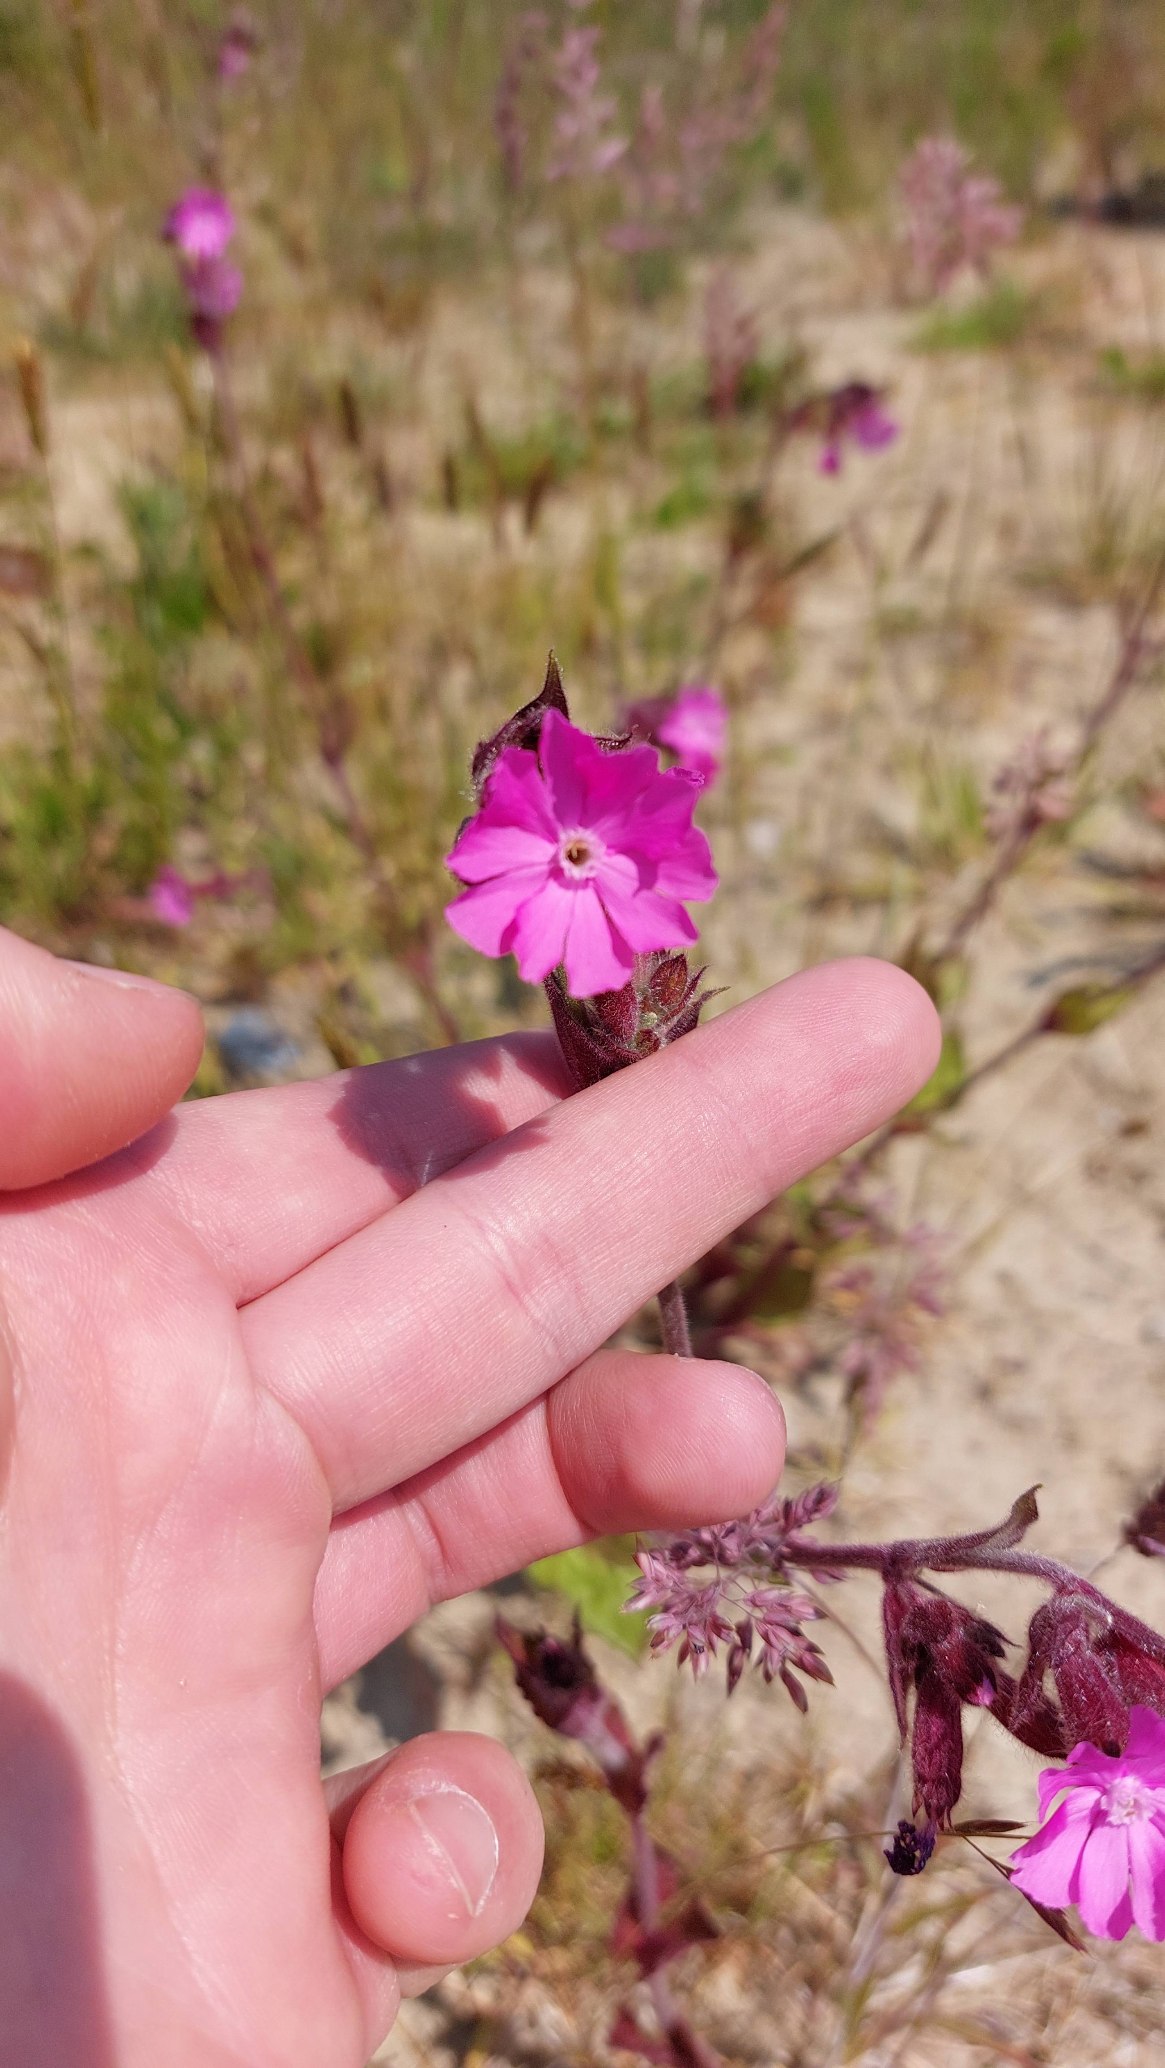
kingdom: Plantae
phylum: Tracheophyta
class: Magnoliopsida
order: Caryophyllales
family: Caryophyllaceae
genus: Silene
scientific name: Silene dioica
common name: Dagpragtstjerne
